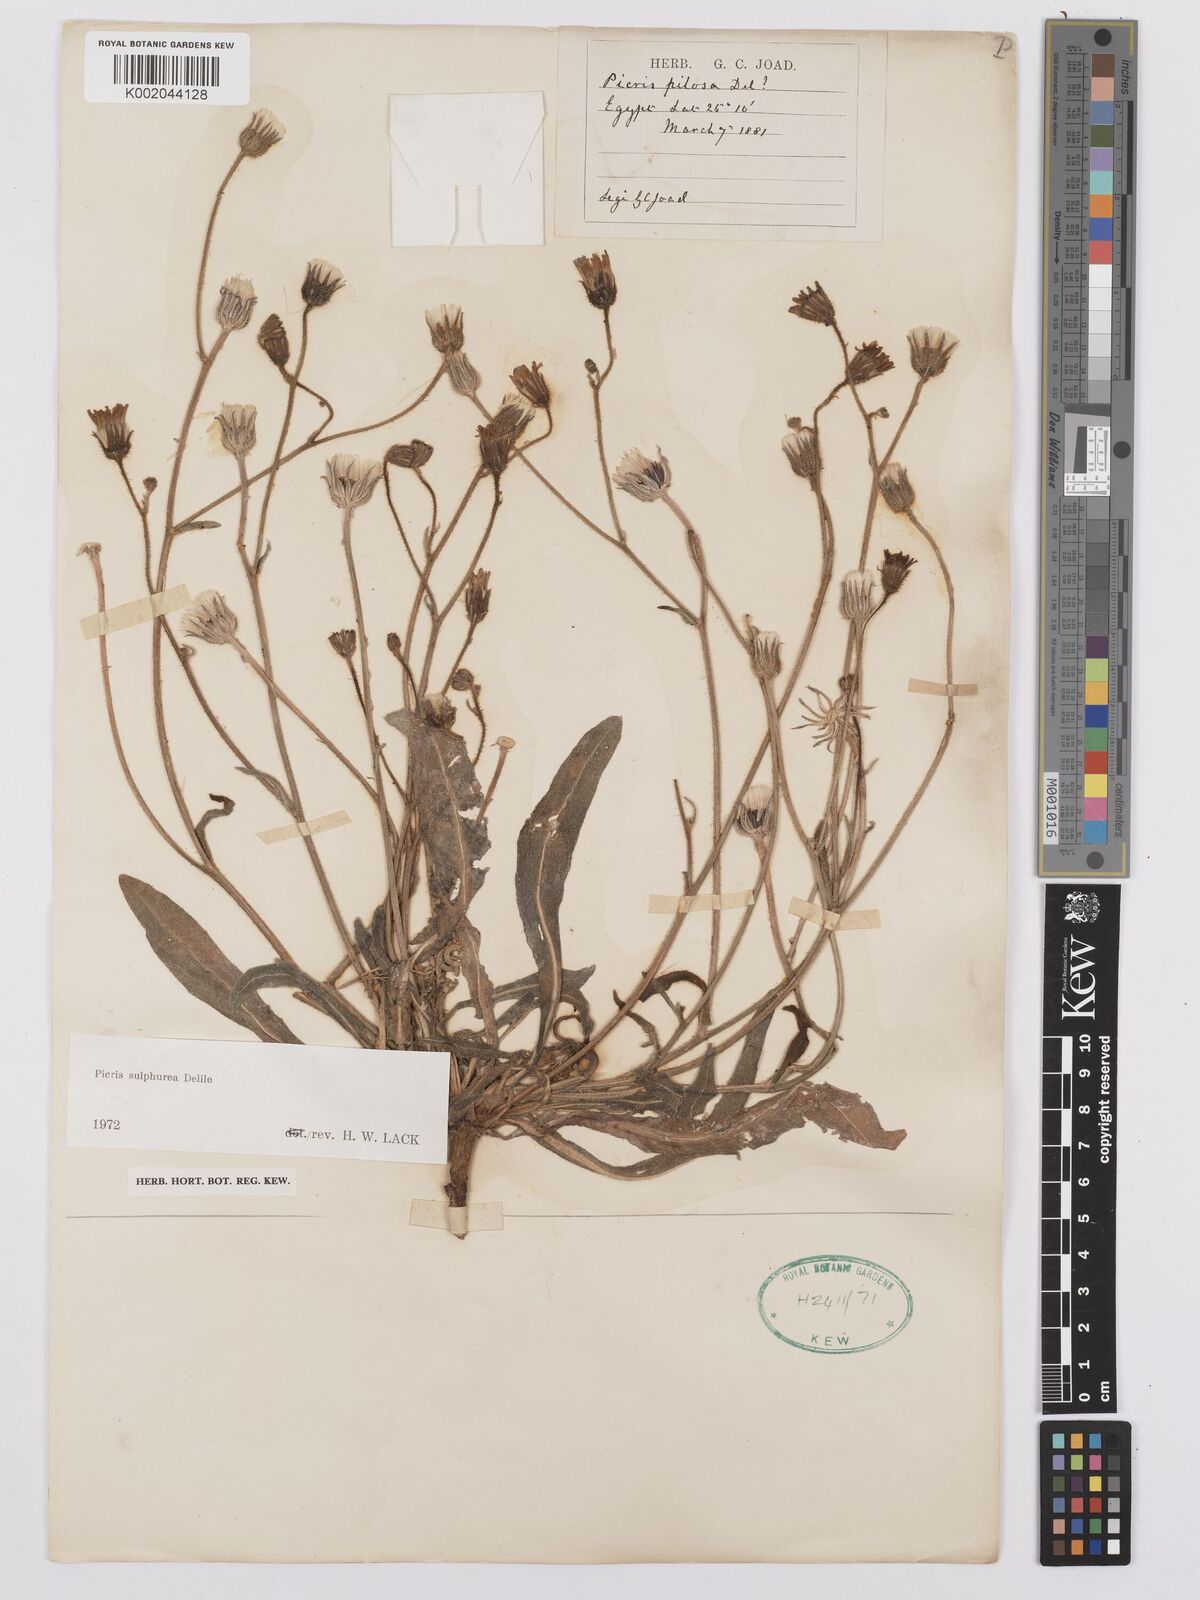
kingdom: Plantae
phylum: Tracheophyta
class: Magnoliopsida
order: Asterales
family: Asteraceae
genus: Picris
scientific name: Picris sulphurea
